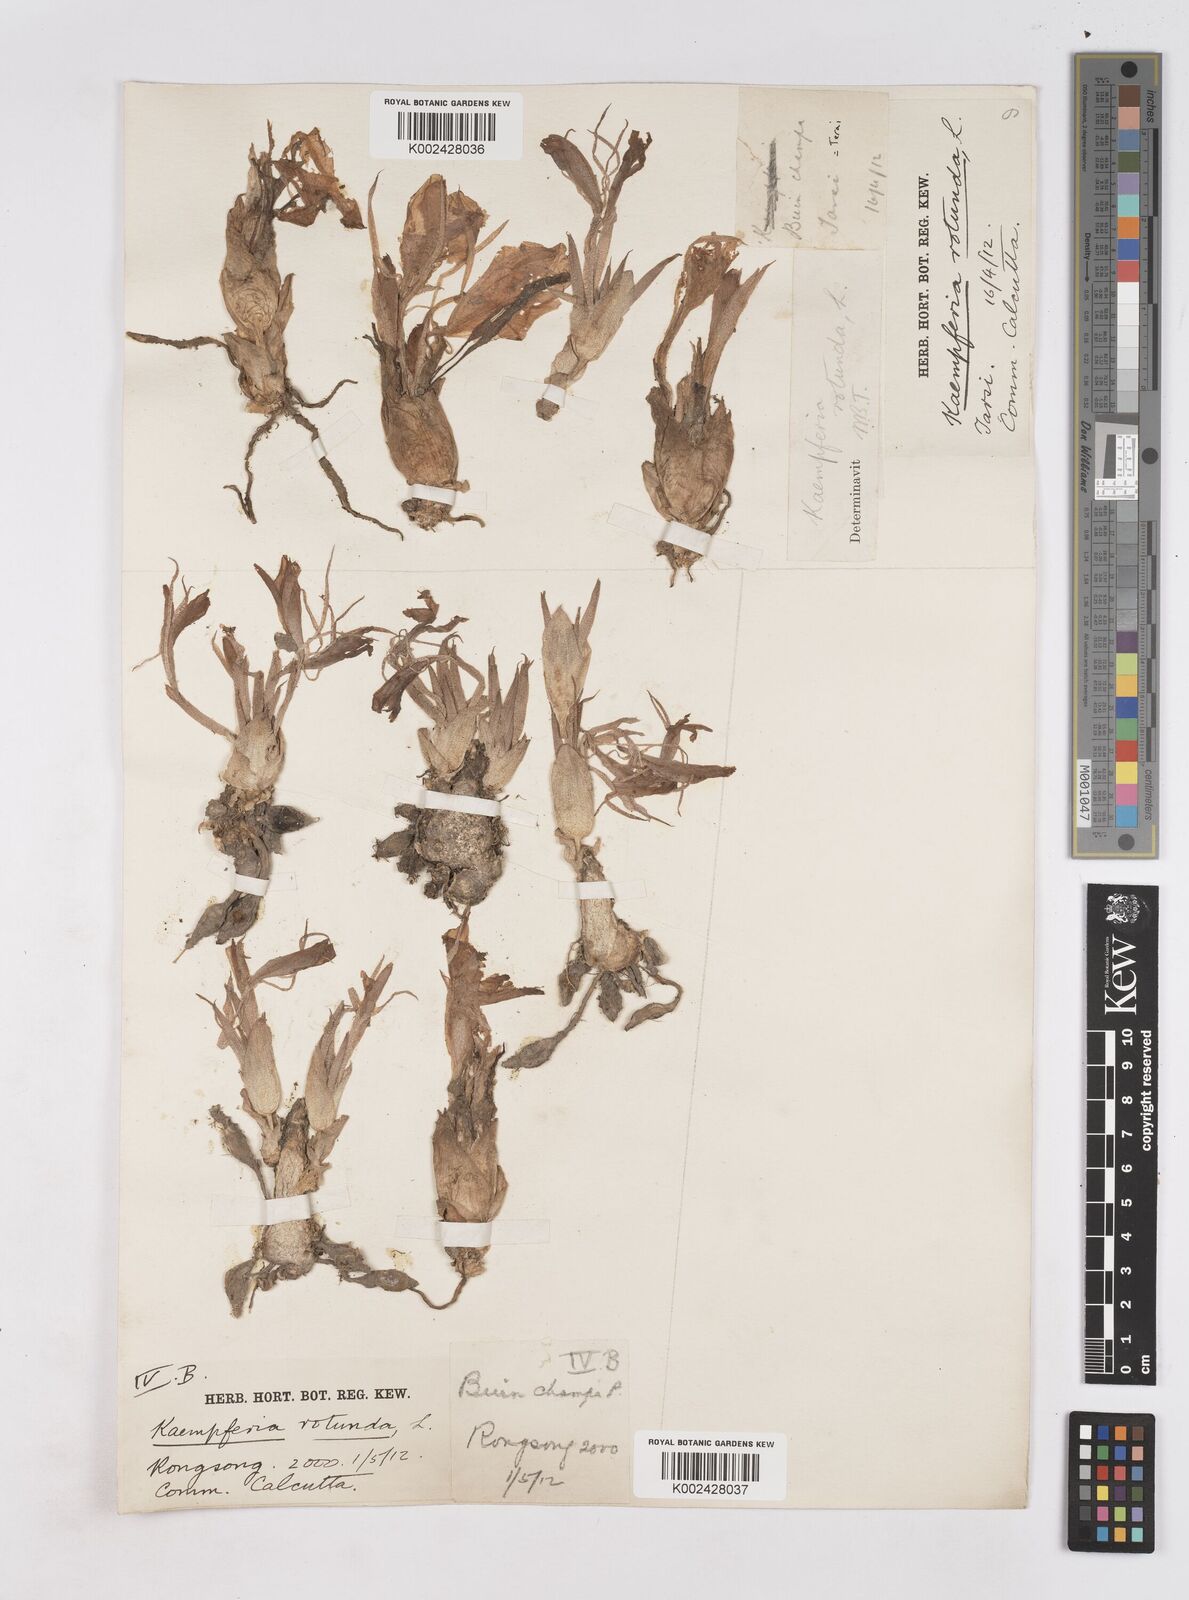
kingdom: Plantae
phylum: Tracheophyta
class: Liliopsida
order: Zingiberales
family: Zingiberaceae
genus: Kaempferia
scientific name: Kaempferia rotunda
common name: Tropical-crocus
